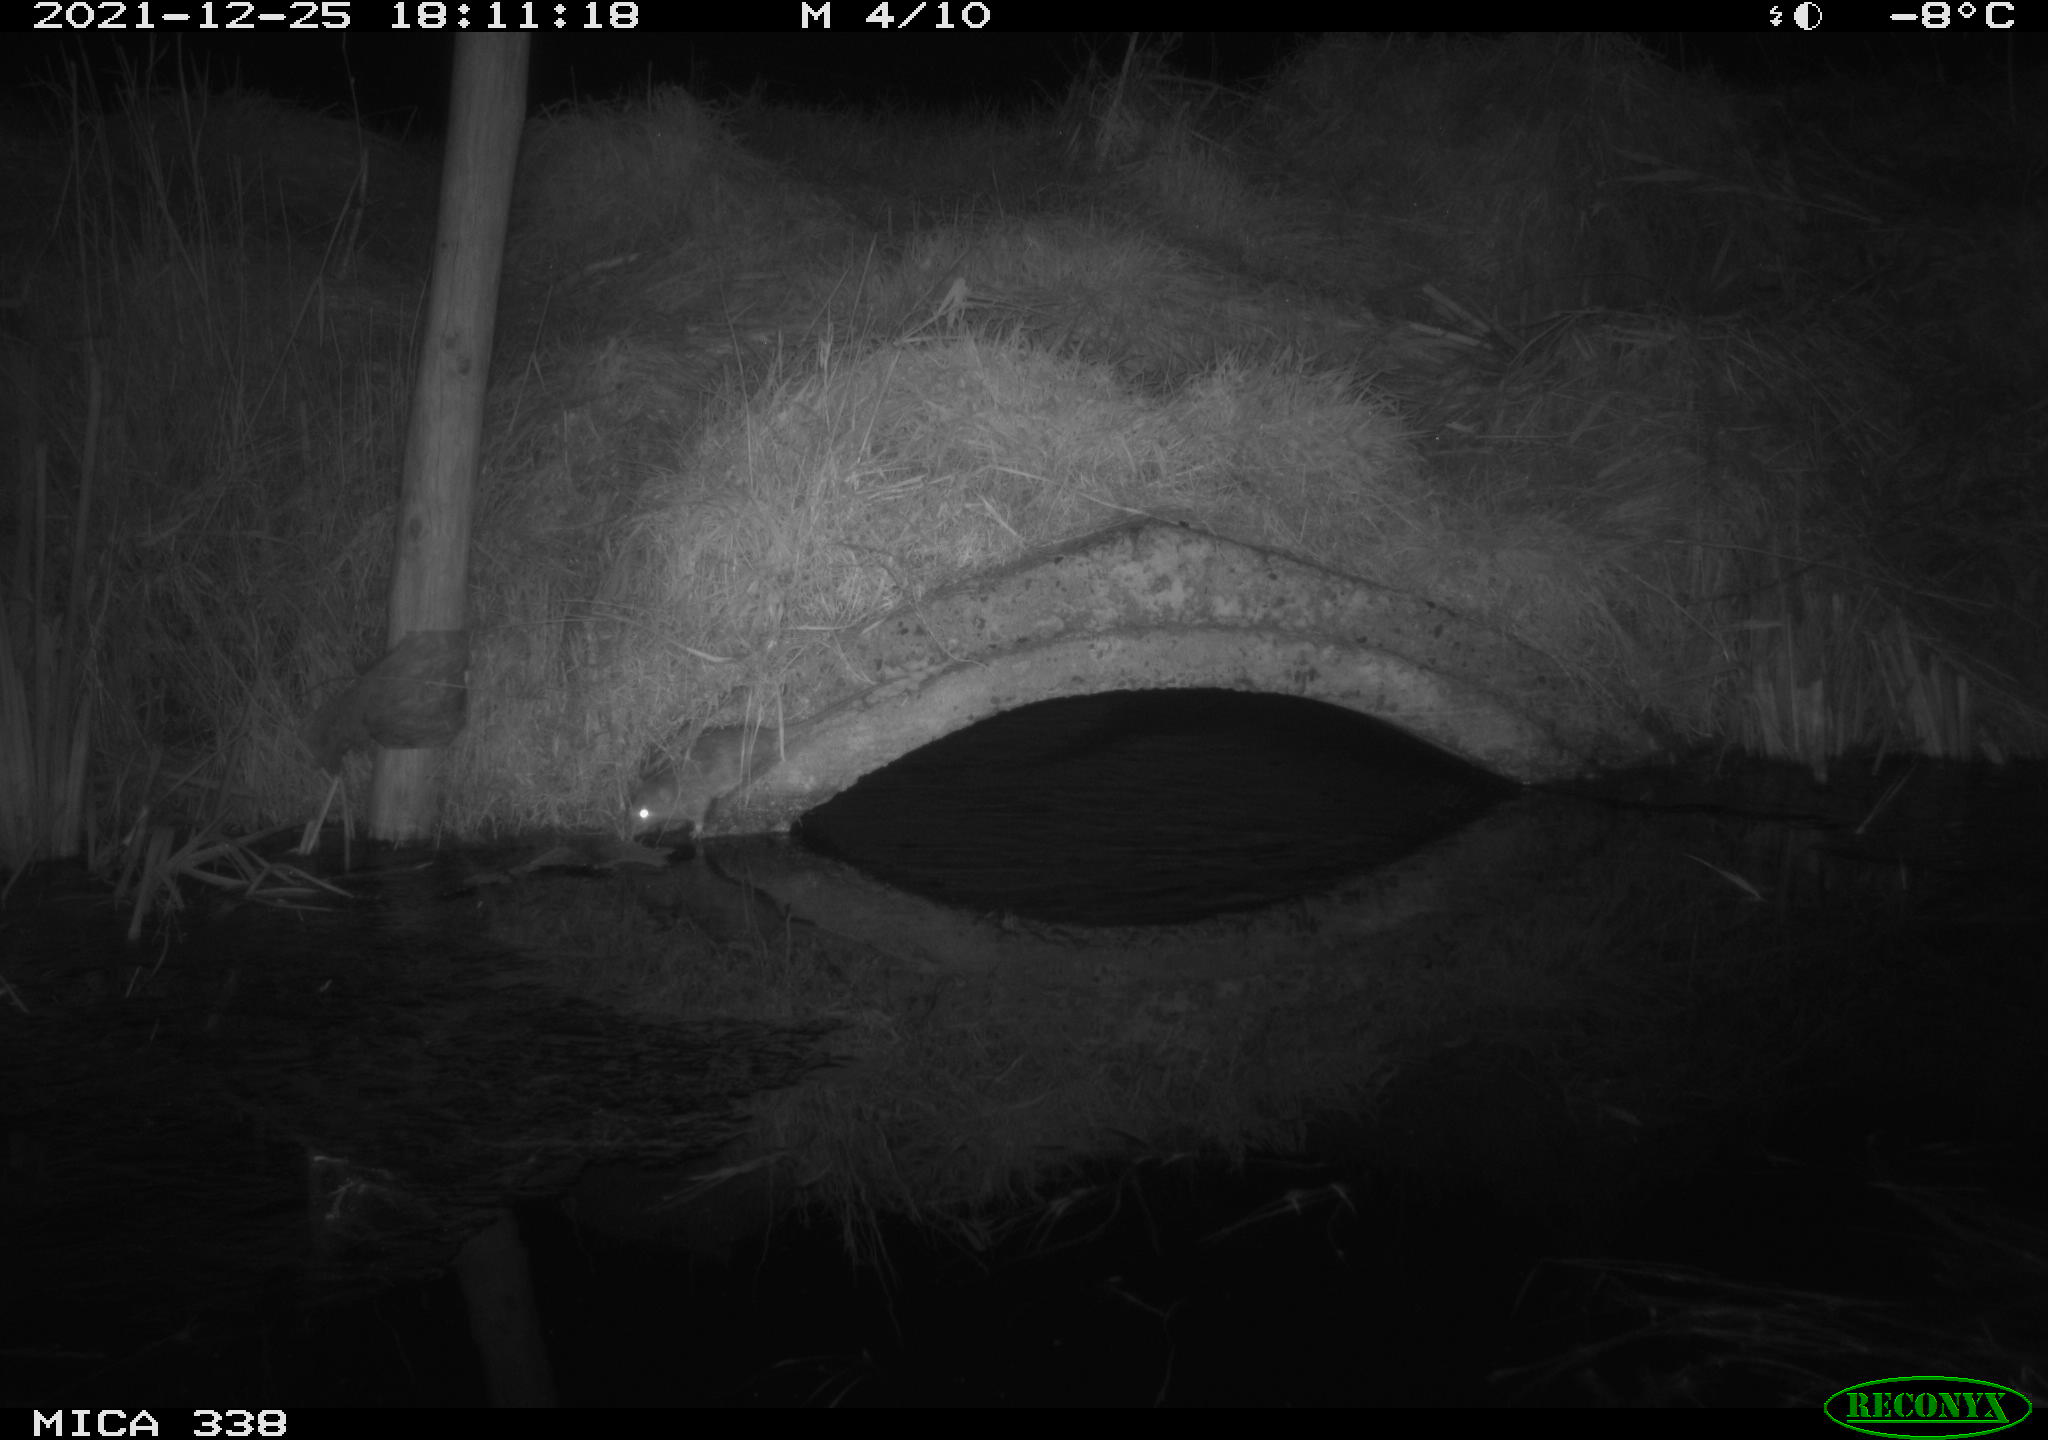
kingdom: Animalia
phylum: Chordata
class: Mammalia
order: Rodentia
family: Muridae
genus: Rattus
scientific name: Rattus norvegicus
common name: Brown rat
